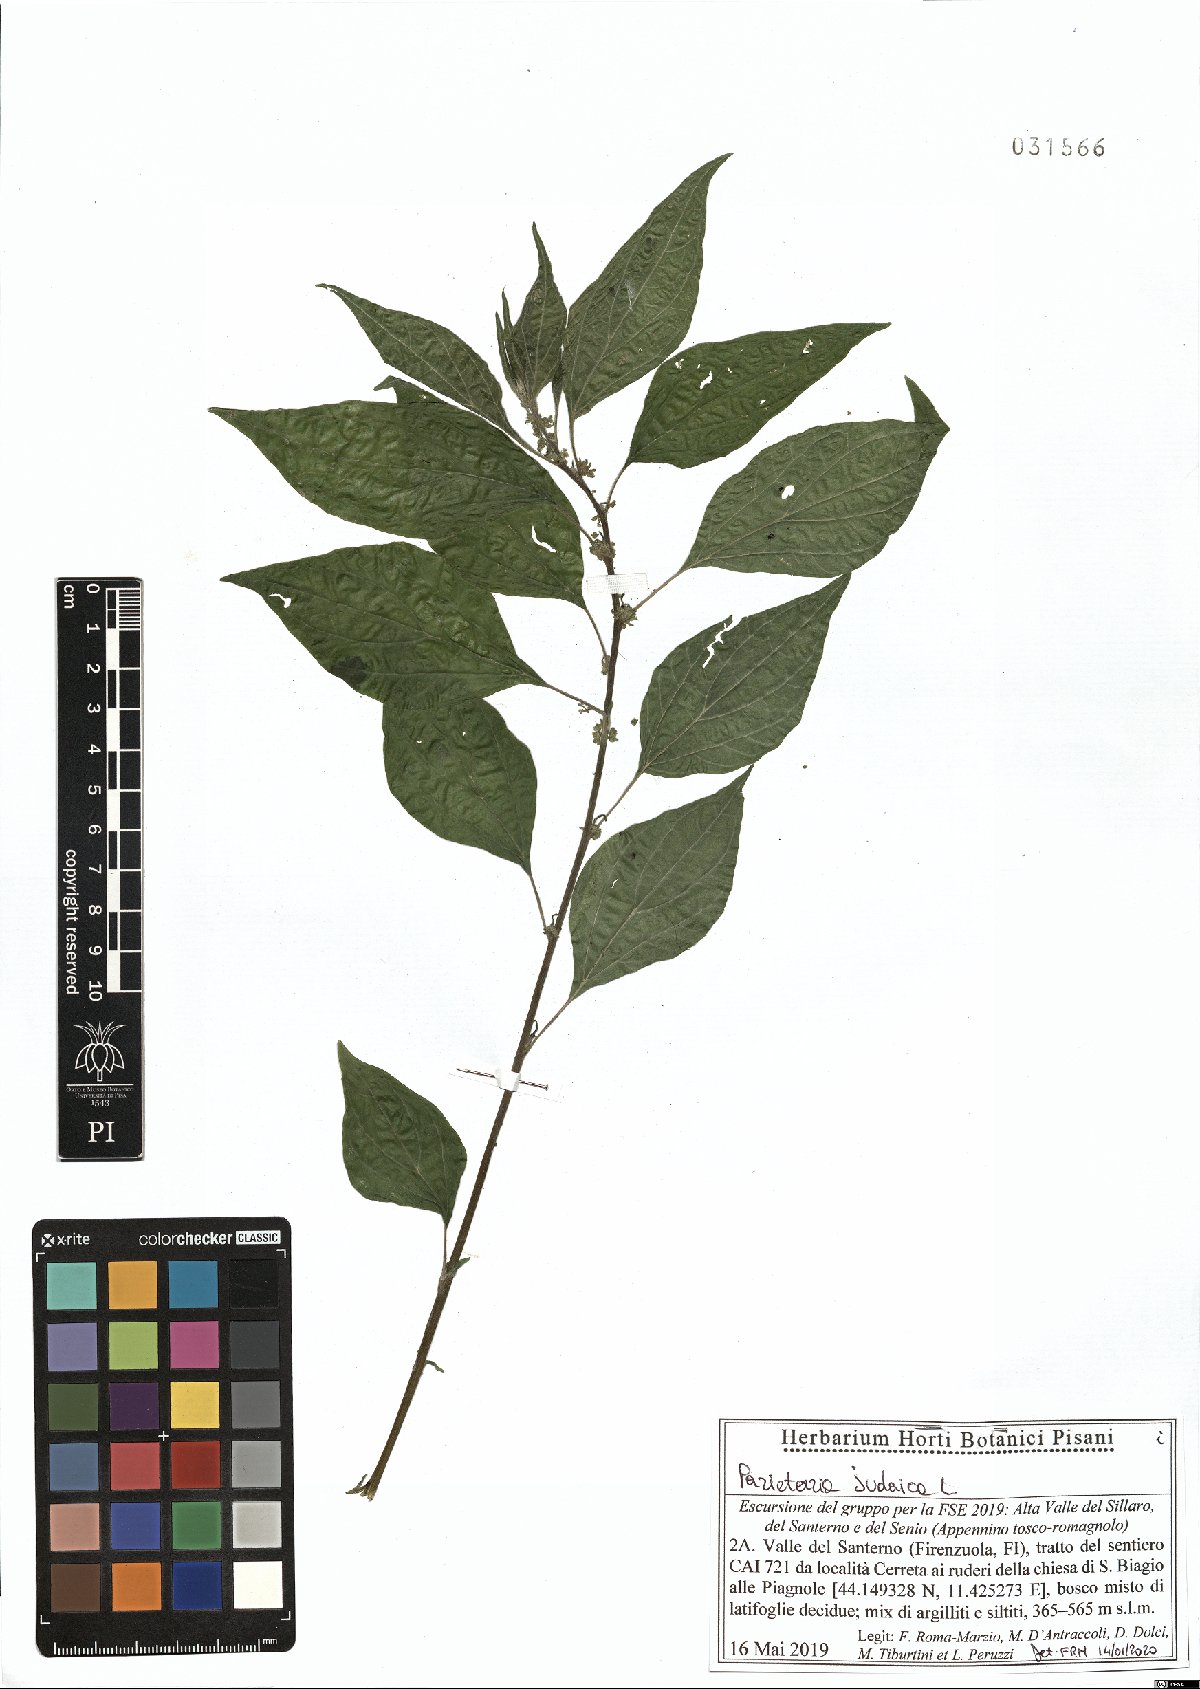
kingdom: Plantae
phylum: Tracheophyta
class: Magnoliopsida
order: Rosales
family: Urticaceae
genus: Parietaria
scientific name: Parietaria judaica
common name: Pellitory-of-the-wall
